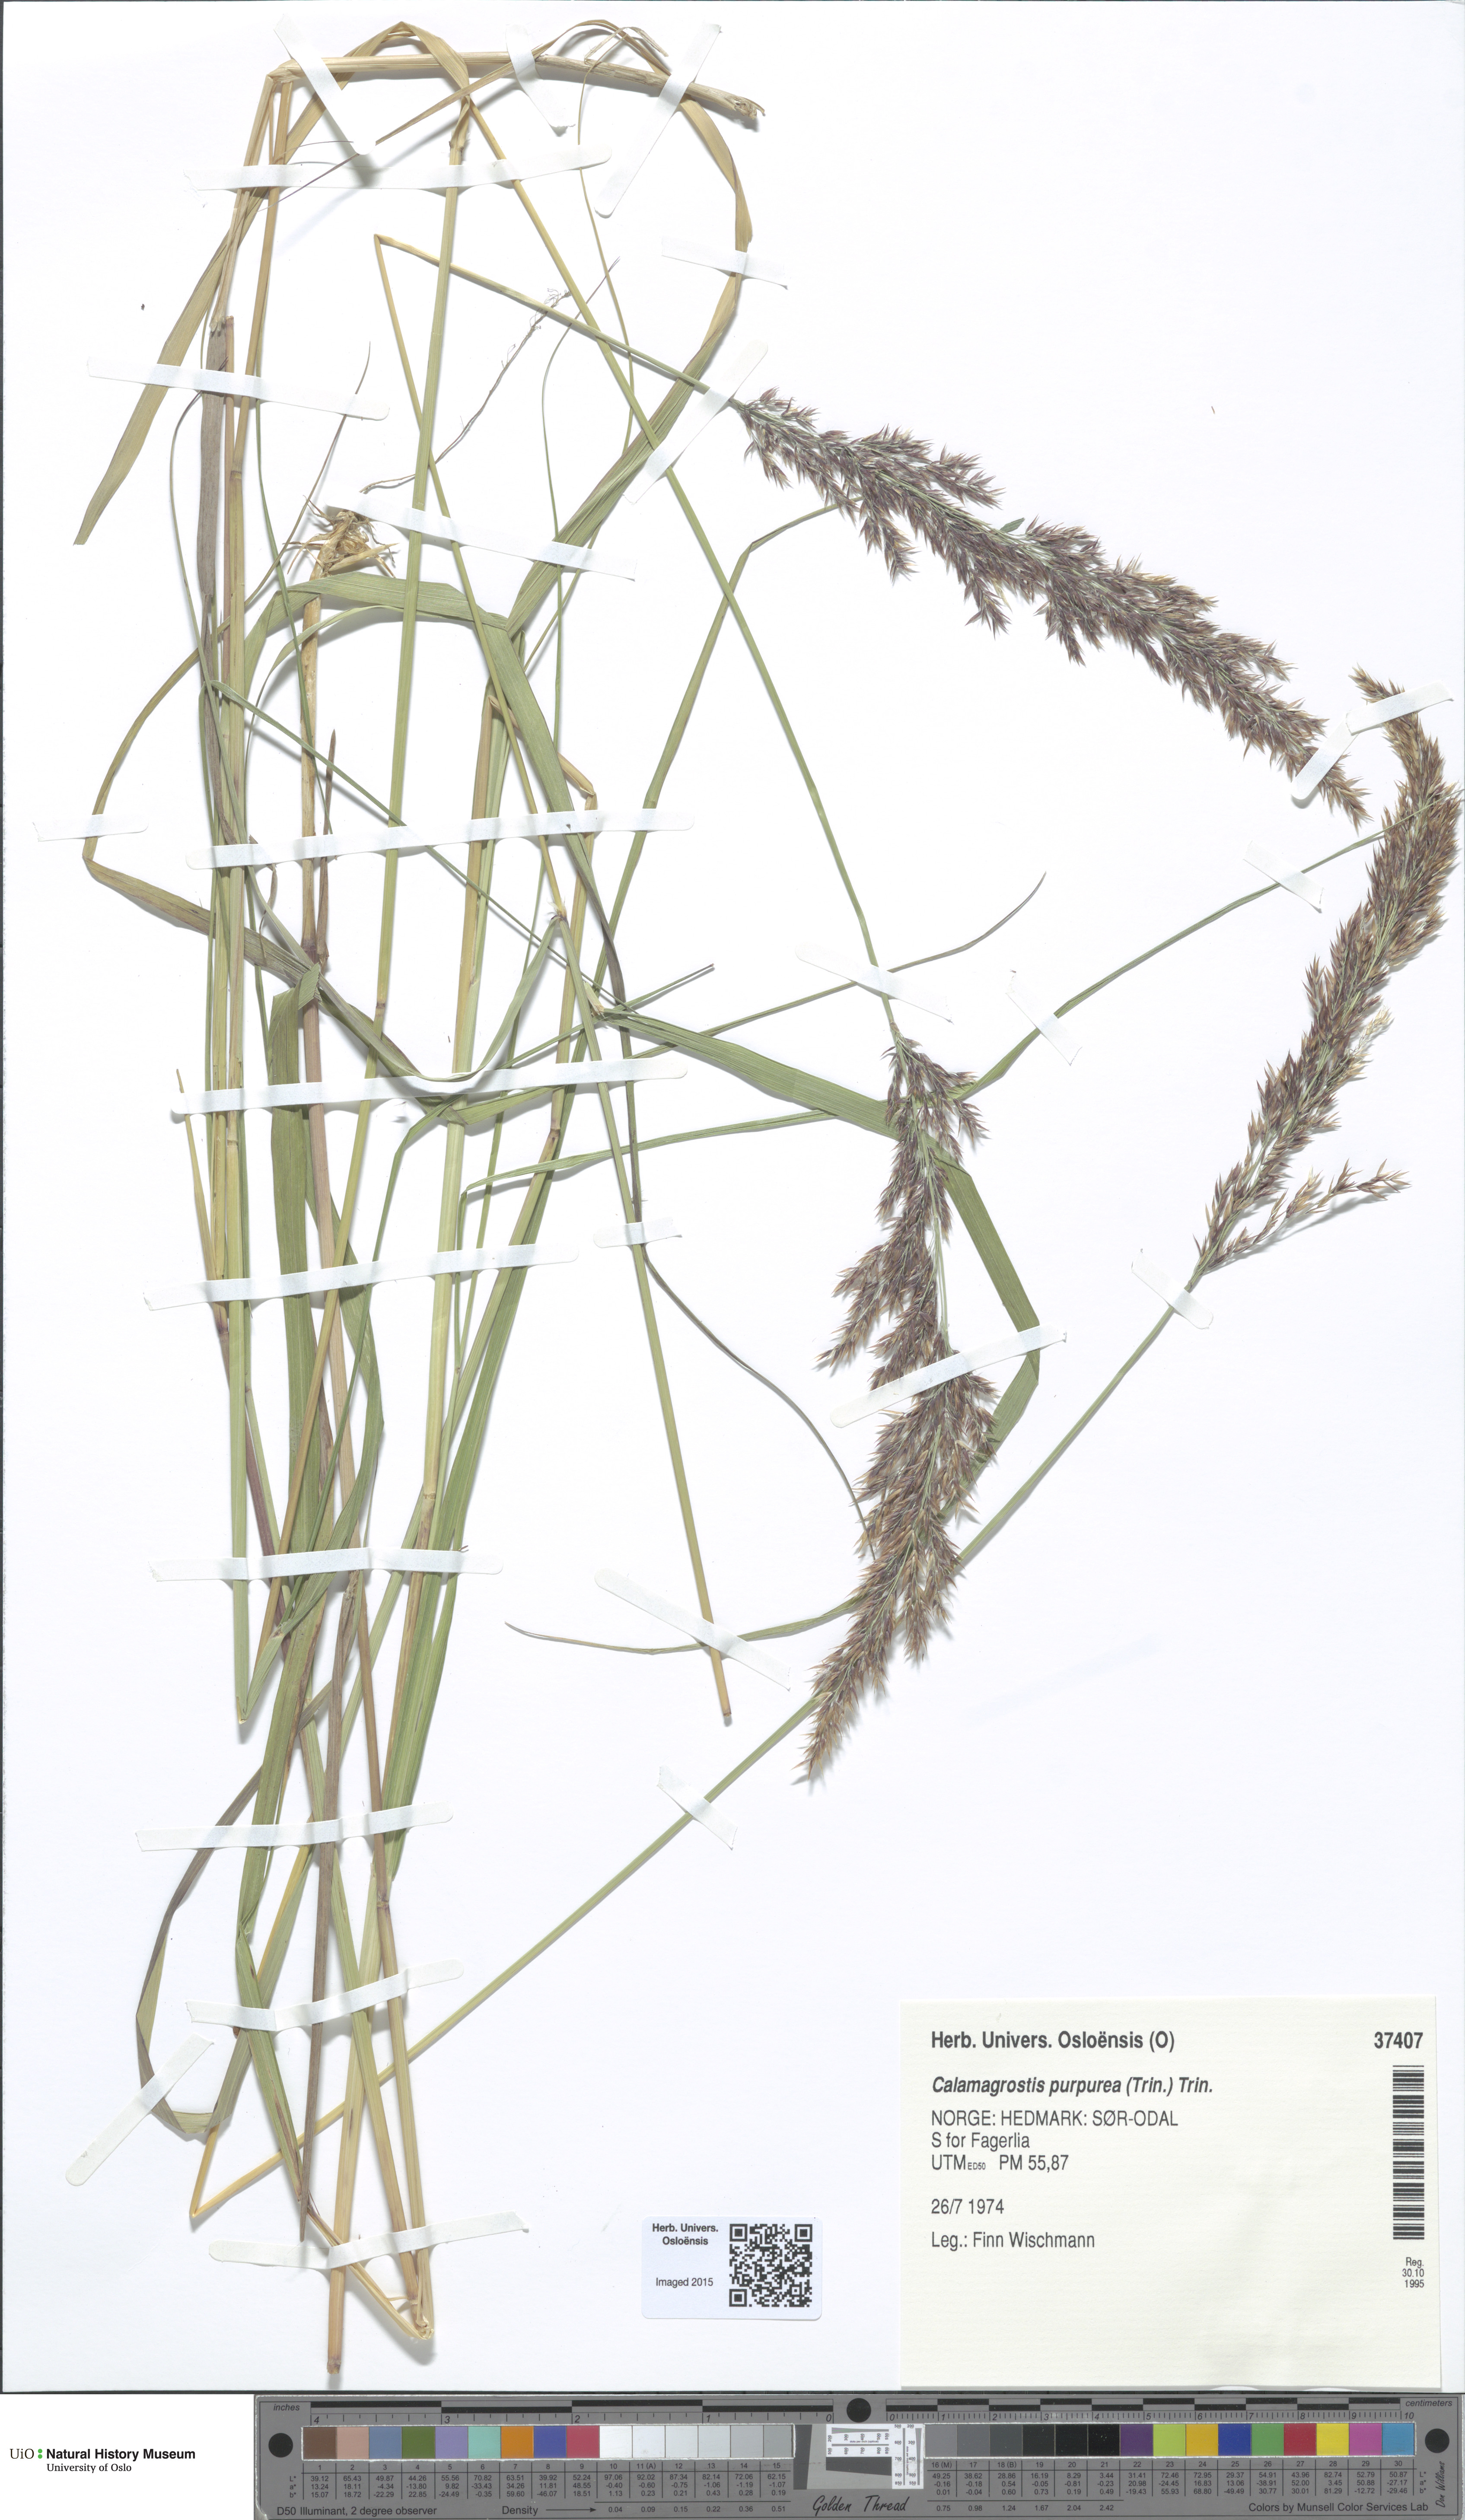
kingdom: Plantae
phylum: Tracheophyta
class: Liliopsida
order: Poales
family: Poaceae
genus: Calamagrostis
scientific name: Calamagrostis purpurea
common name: Scandinavian small-reed
